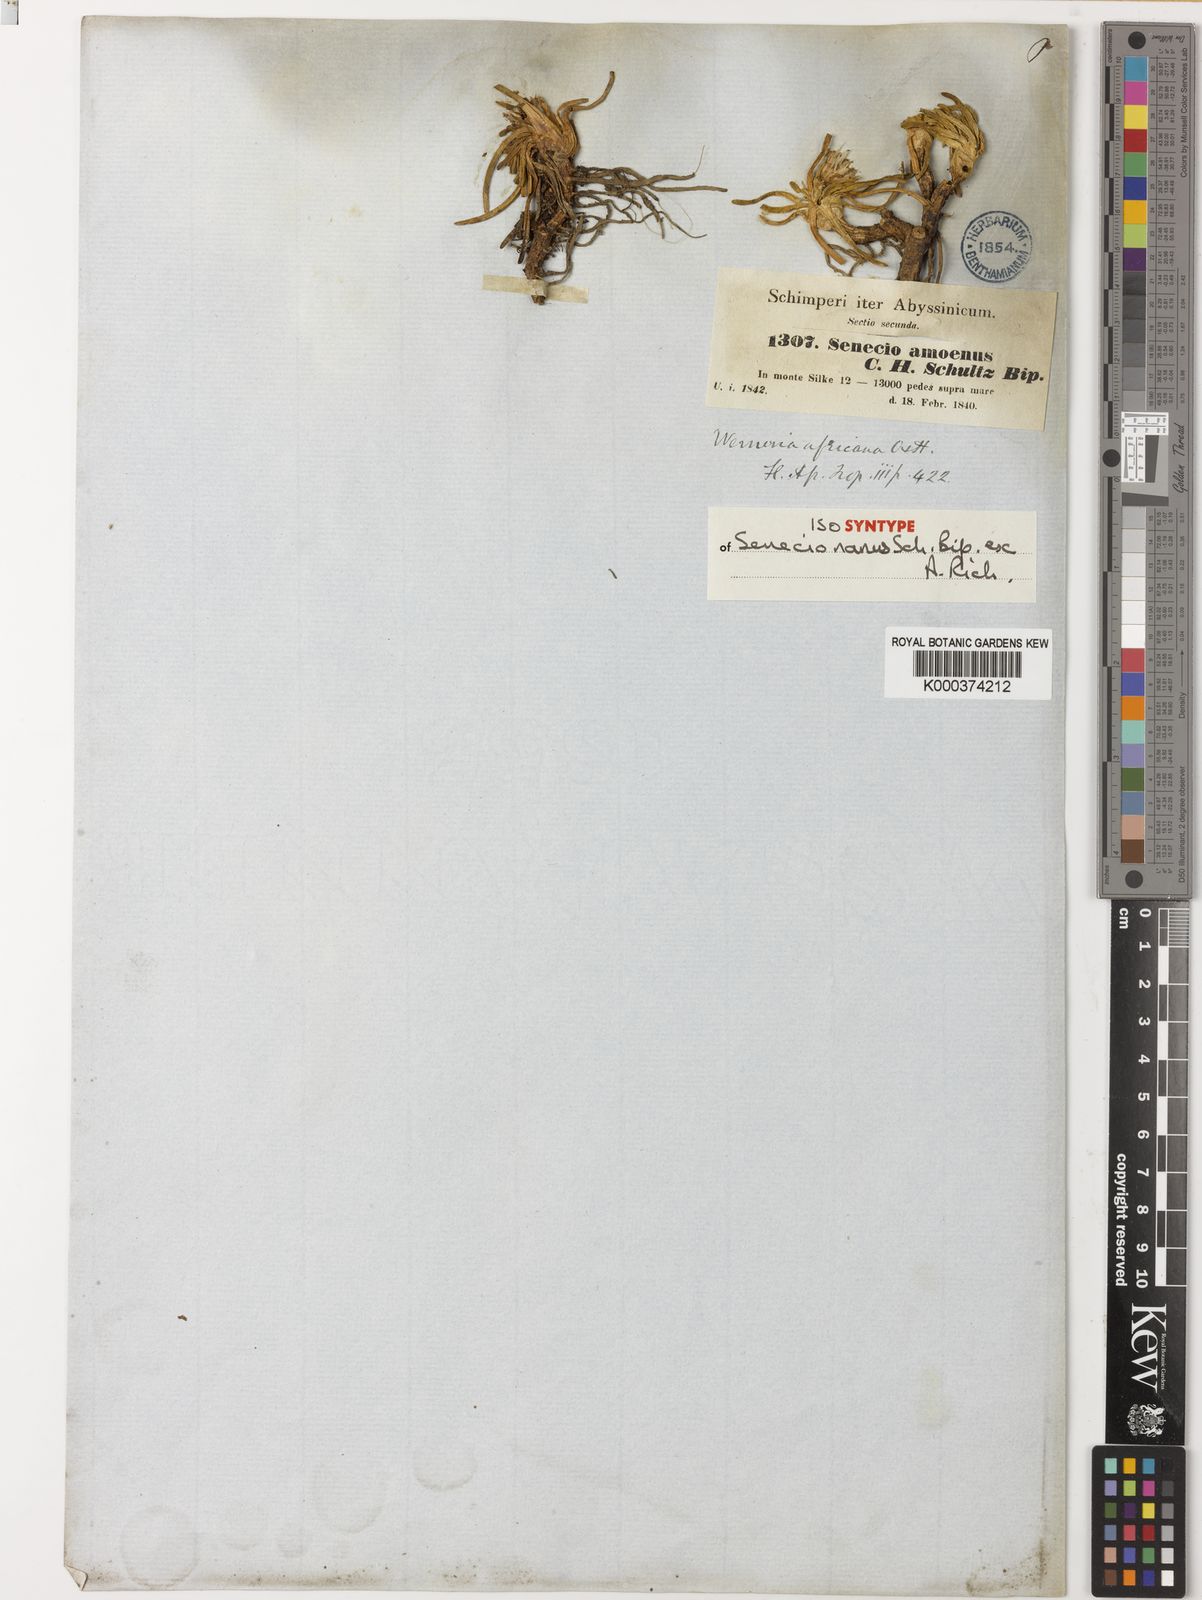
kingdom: Plantae
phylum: Tracheophyta
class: Magnoliopsida
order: Asterales
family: Asteraceae
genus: Senecio
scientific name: Senecio nanus
